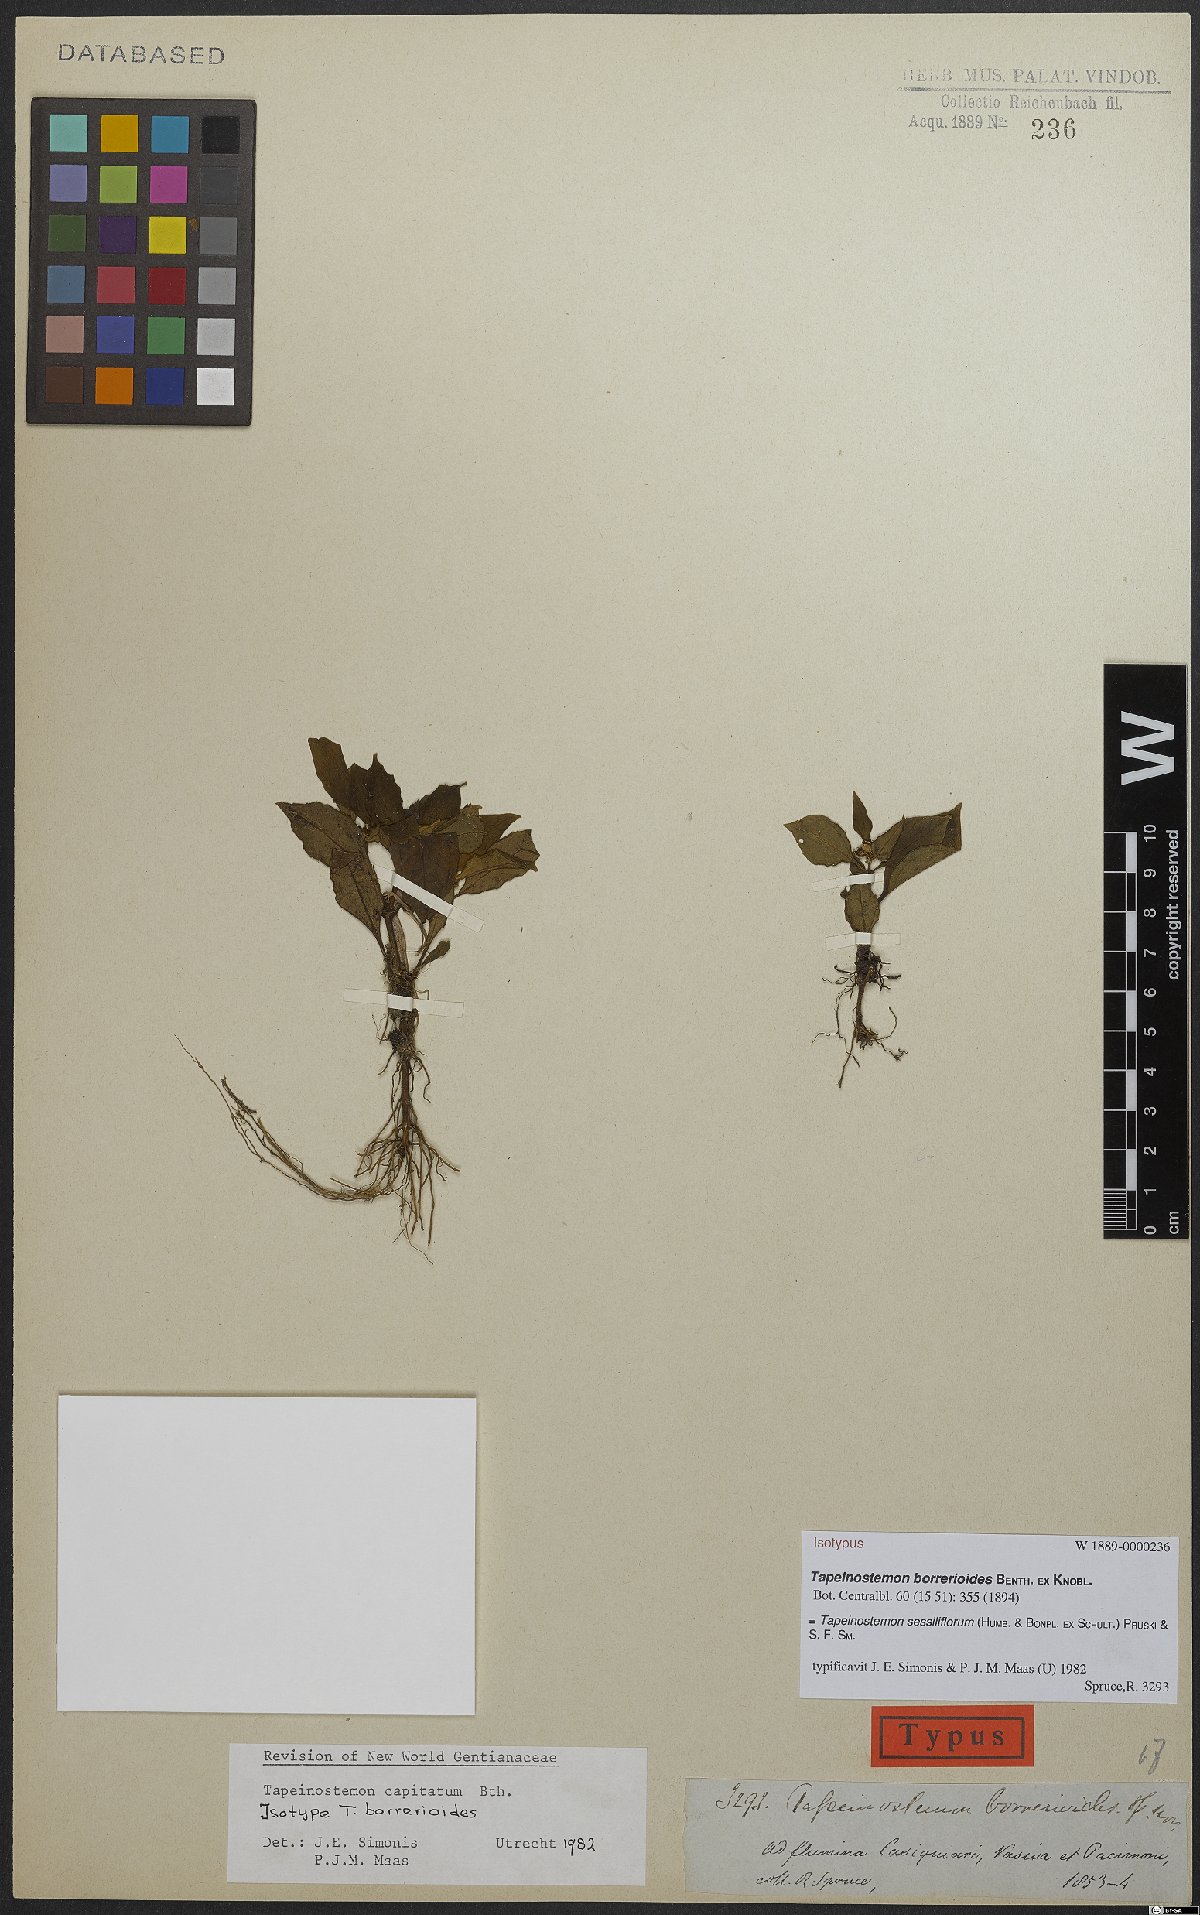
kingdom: Plantae
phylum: Tracheophyta
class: Magnoliopsida
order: Gentianales
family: Gentianaceae
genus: Tapeinostemon
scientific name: Tapeinostemon sessiliflorus
